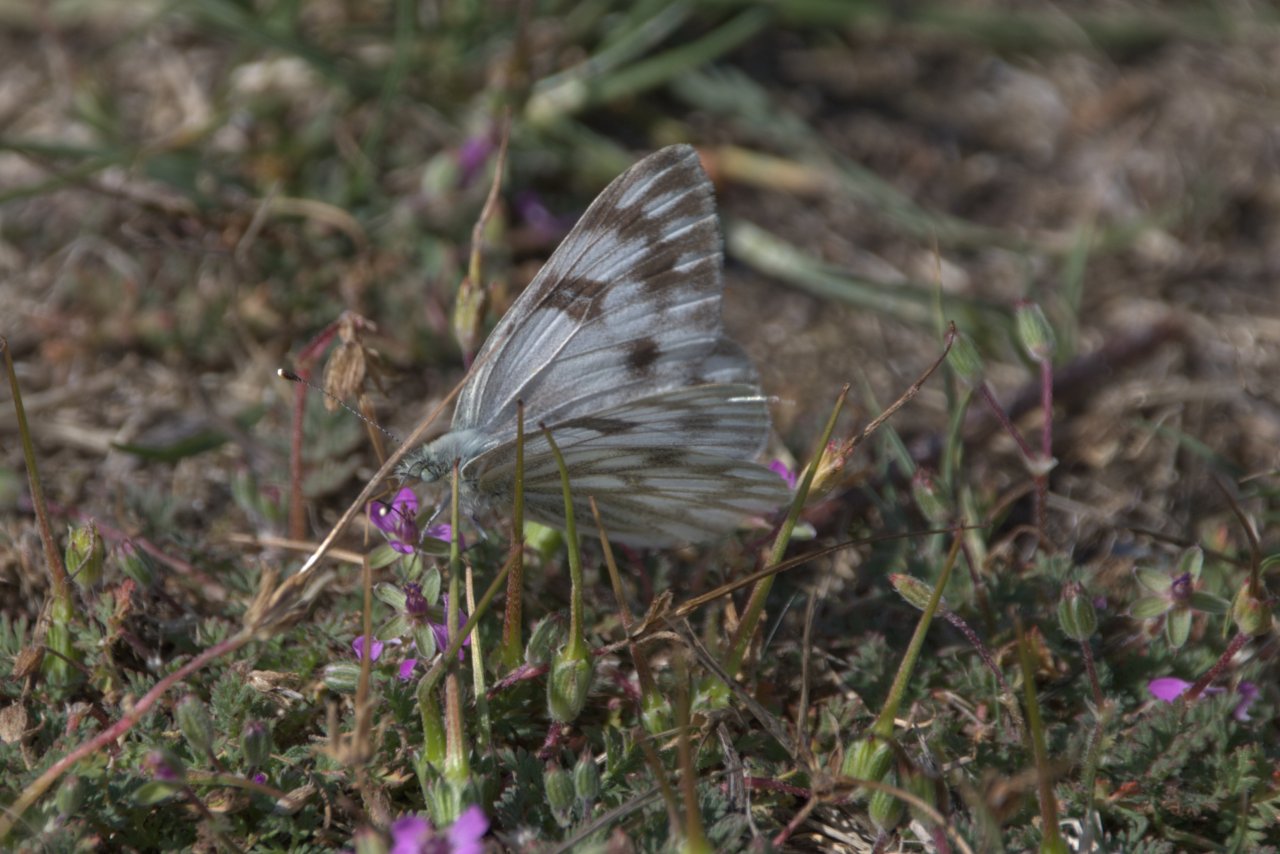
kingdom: Animalia
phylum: Arthropoda
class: Insecta
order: Lepidoptera
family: Pieridae
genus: Pontia
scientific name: Pontia occidentalis
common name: Western White
